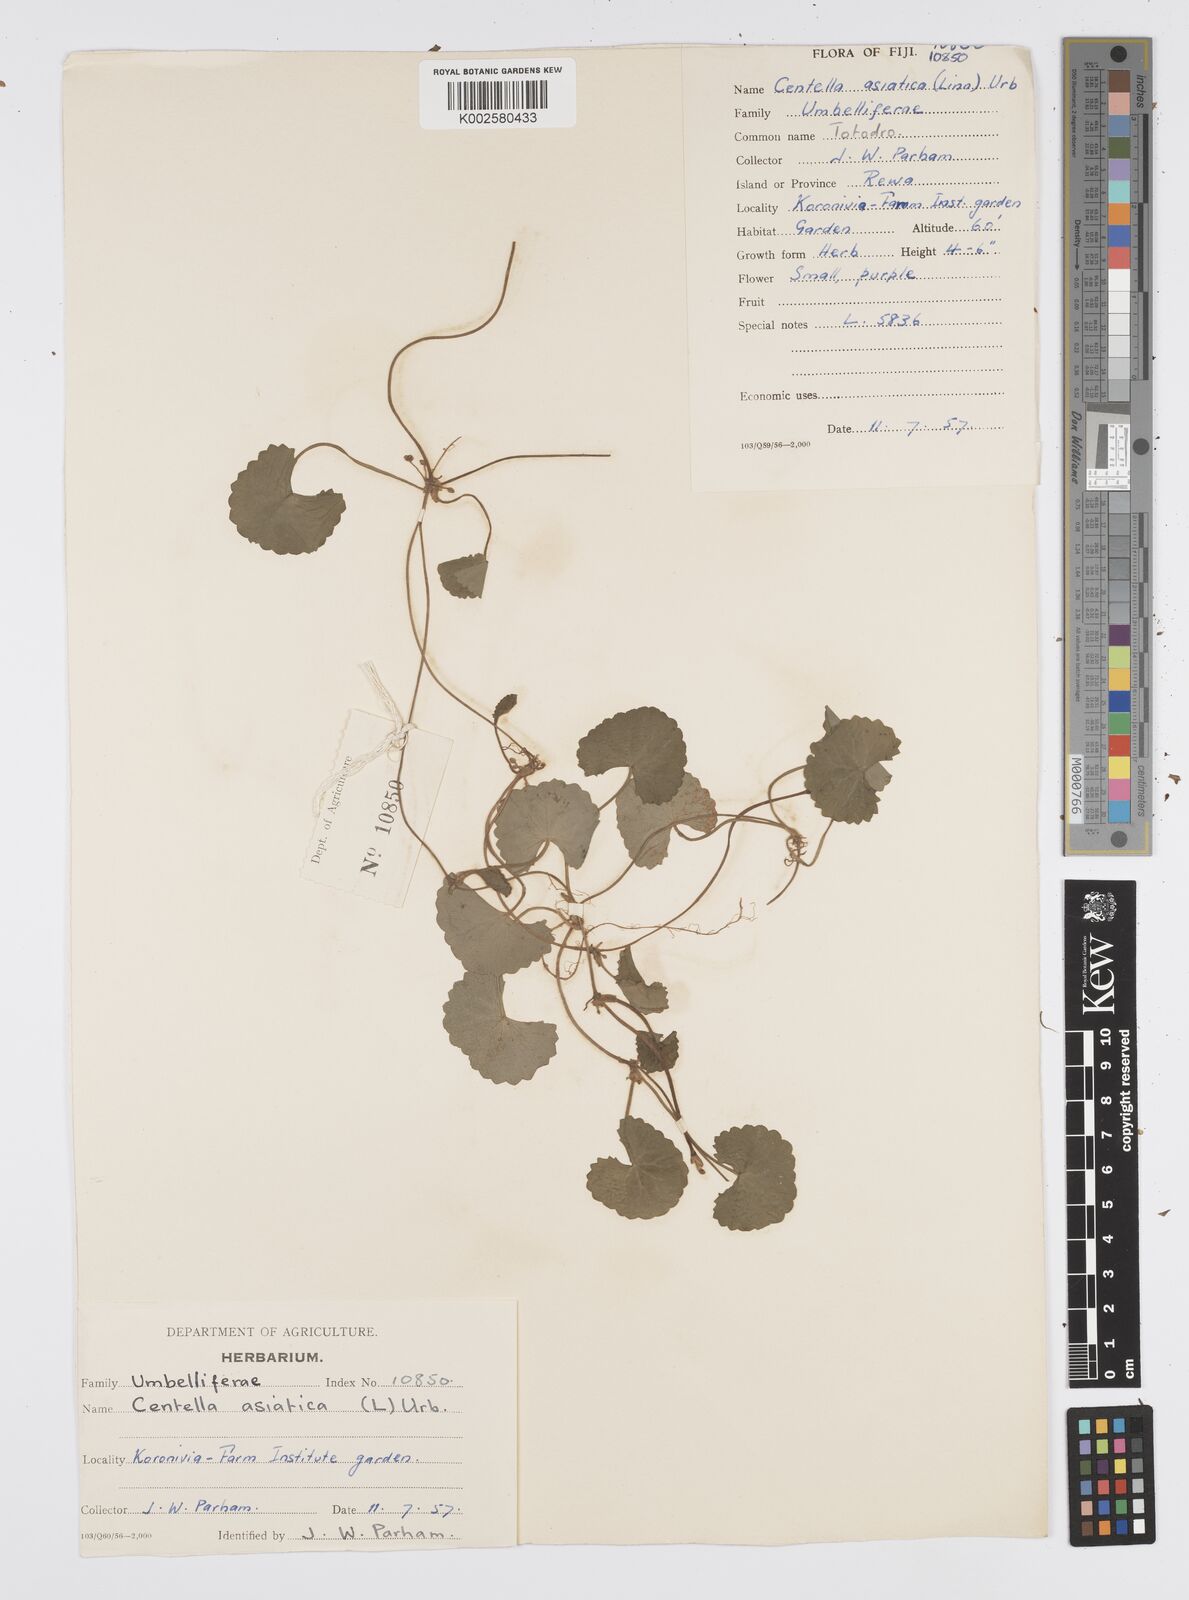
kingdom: Plantae
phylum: Tracheophyta
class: Magnoliopsida
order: Apiales
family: Apiaceae
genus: Centella
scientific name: Centella asiatica
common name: Spadeleaf
